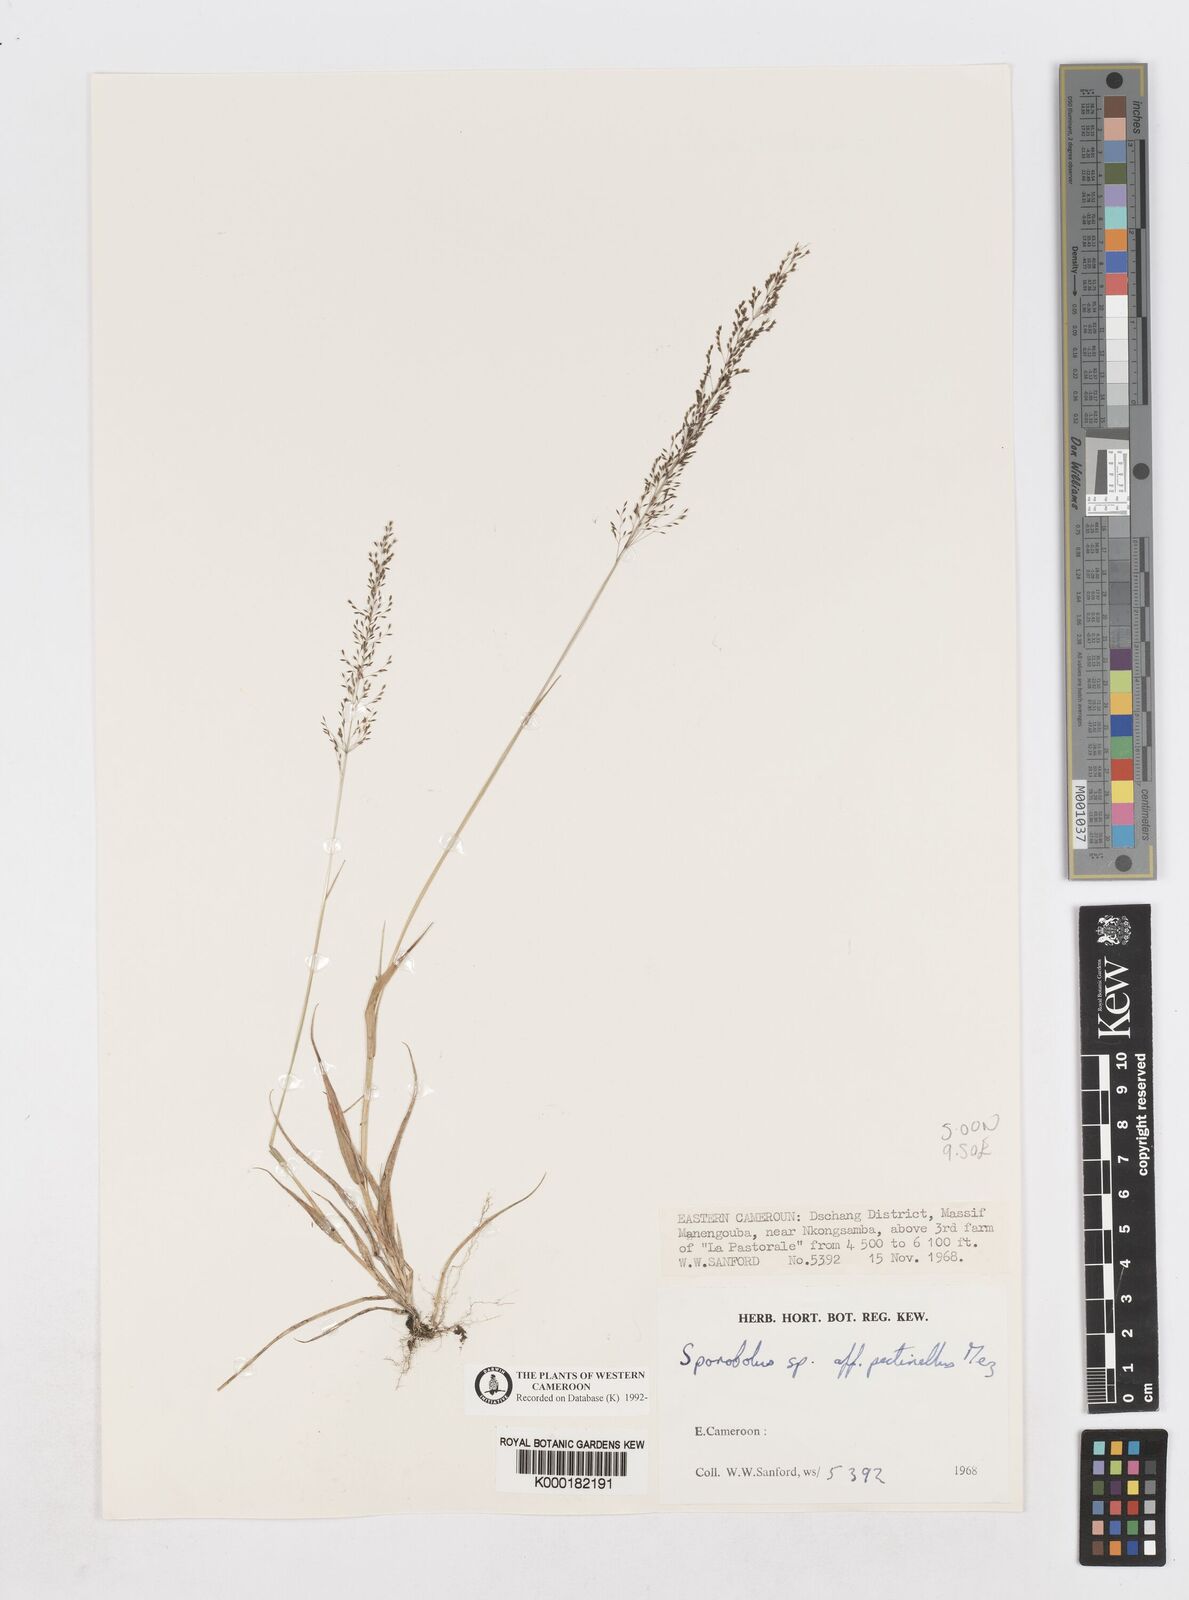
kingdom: Plantae
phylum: Tracheophyta
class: Liliopsida
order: Poales
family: Poaceae
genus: Sporobolus
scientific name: Sporobolus paniculatus
